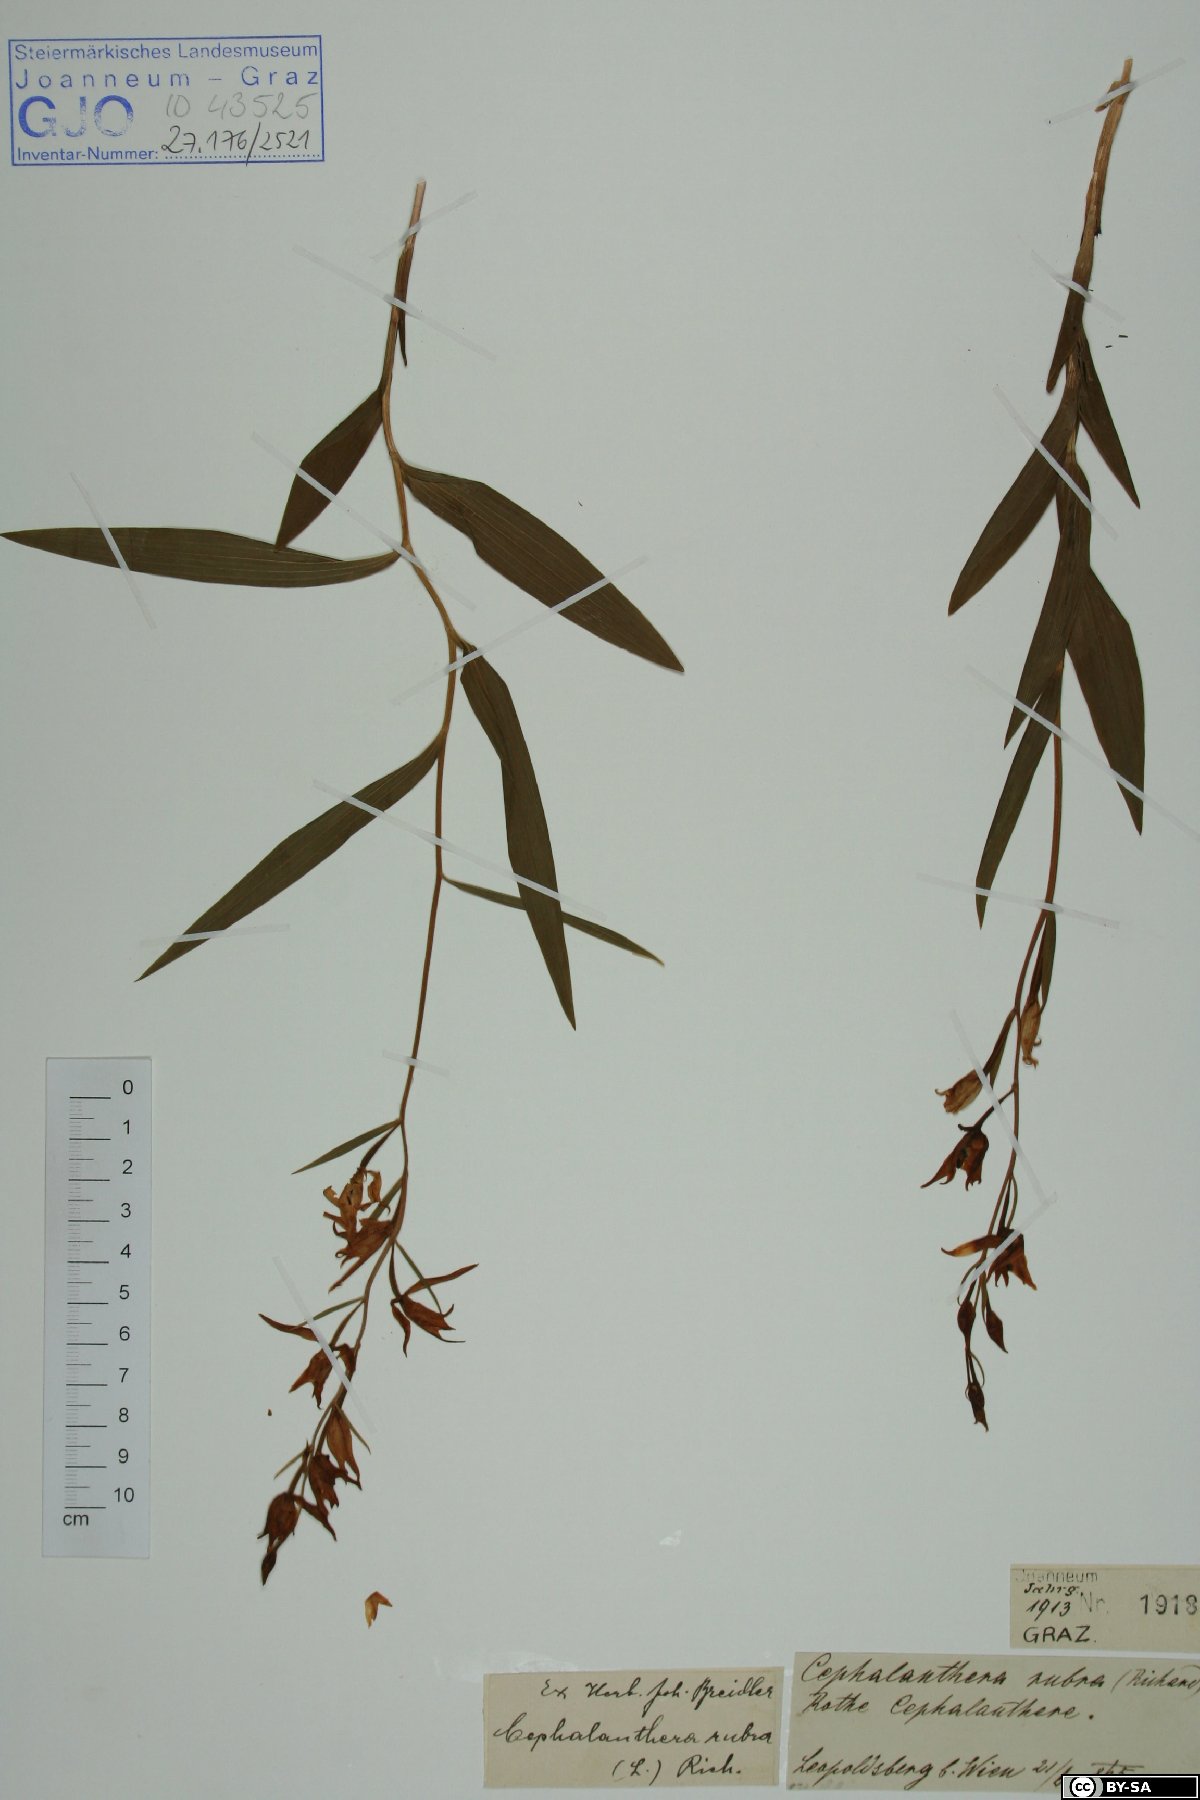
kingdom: Plantae
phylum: Tracheophyta
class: Liliopsida
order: Asparagales
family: Orchidaceae
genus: Cephalanthera
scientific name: Cephalanthera rubra
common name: Red helleborine
